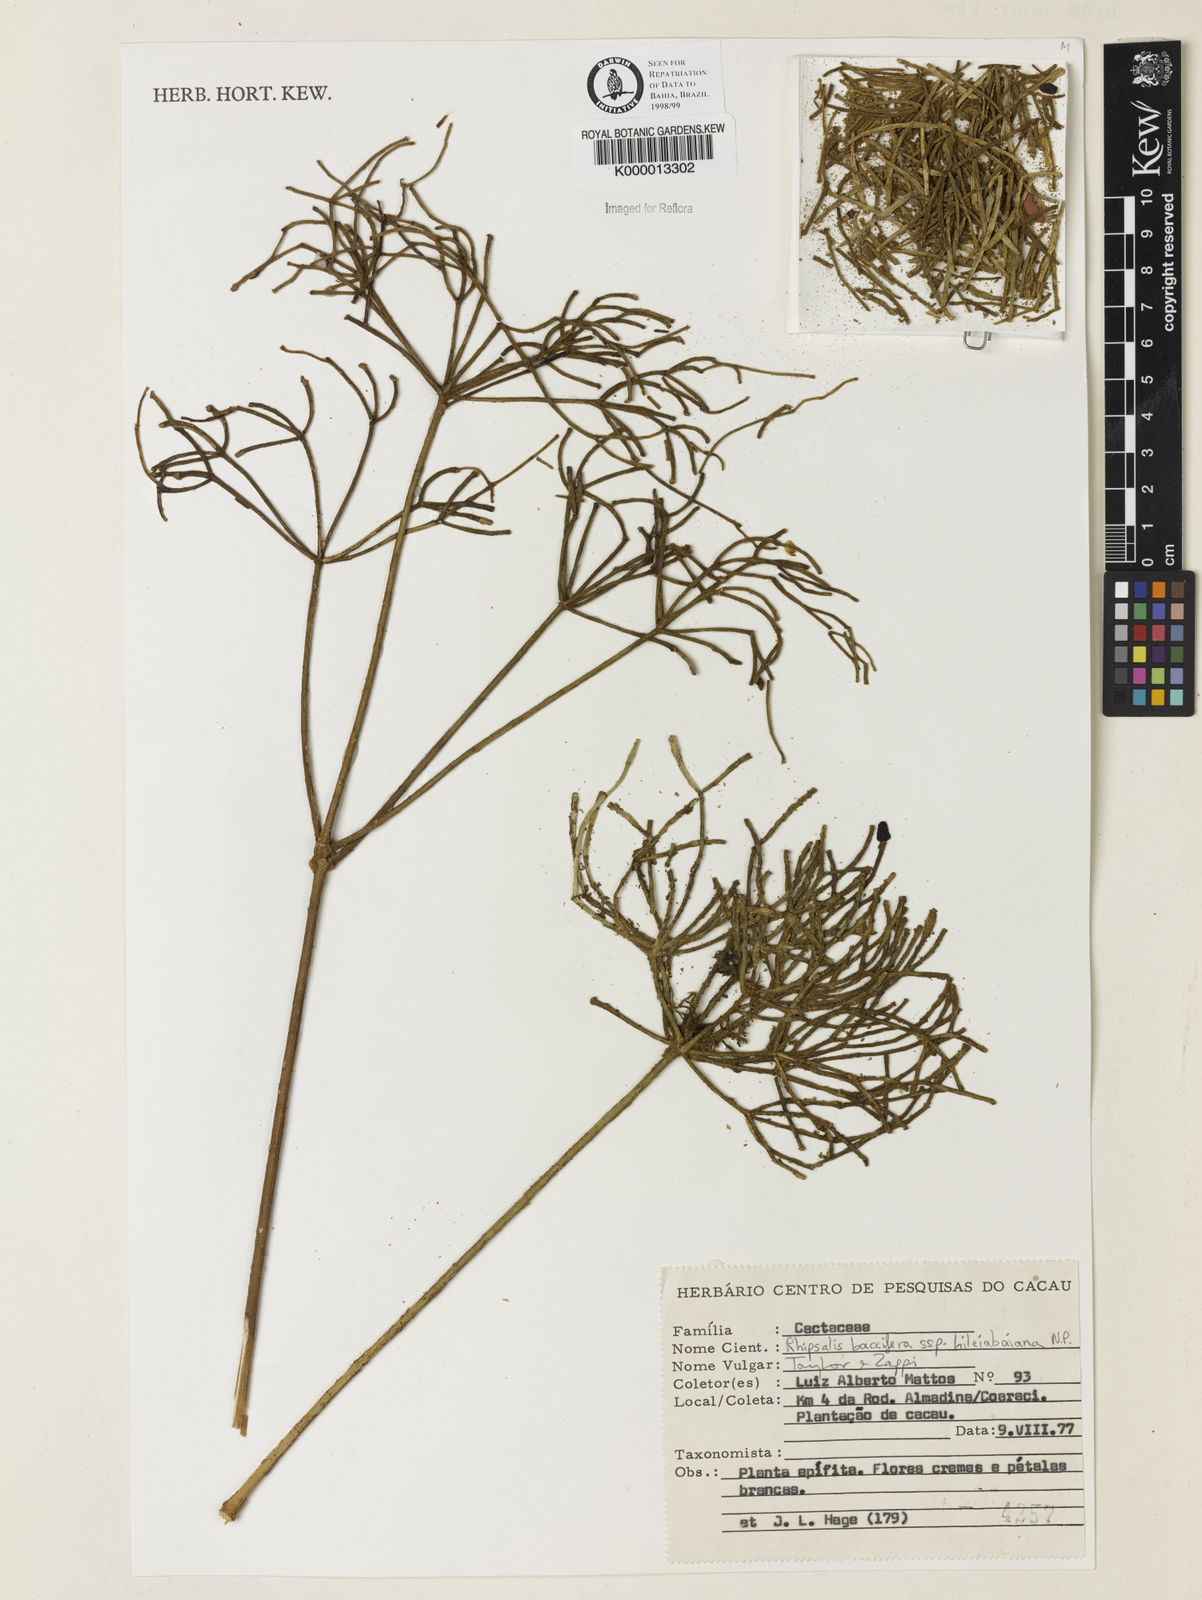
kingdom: Plantae
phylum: Tracheophyta
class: Magnoliopsida
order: Caryophyllales
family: Cactaceae
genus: Rhipsalis
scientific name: Rhipsalis hileiabaiana
